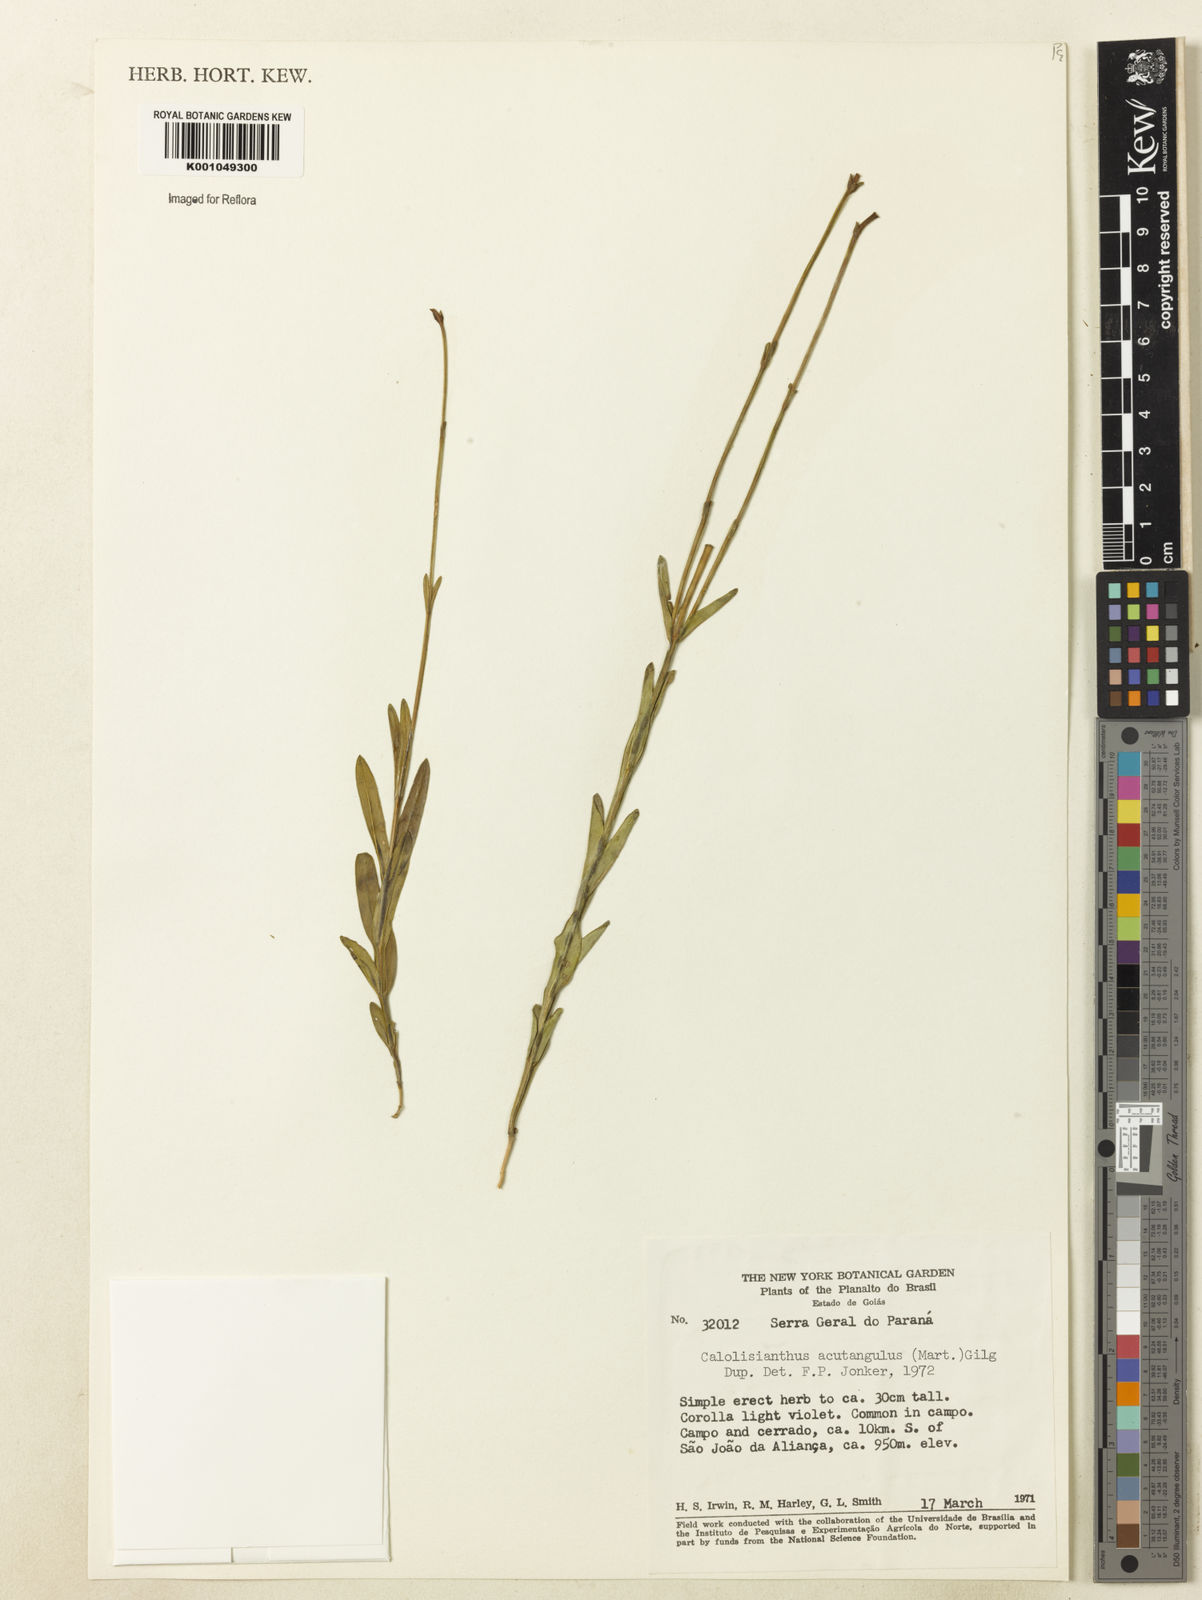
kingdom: Plantae
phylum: Tracheophyta
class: Magnoliopsida
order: Gentianales
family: Gentianaceae
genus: Lisianthius
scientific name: Lisianthius tetragonoalatus
